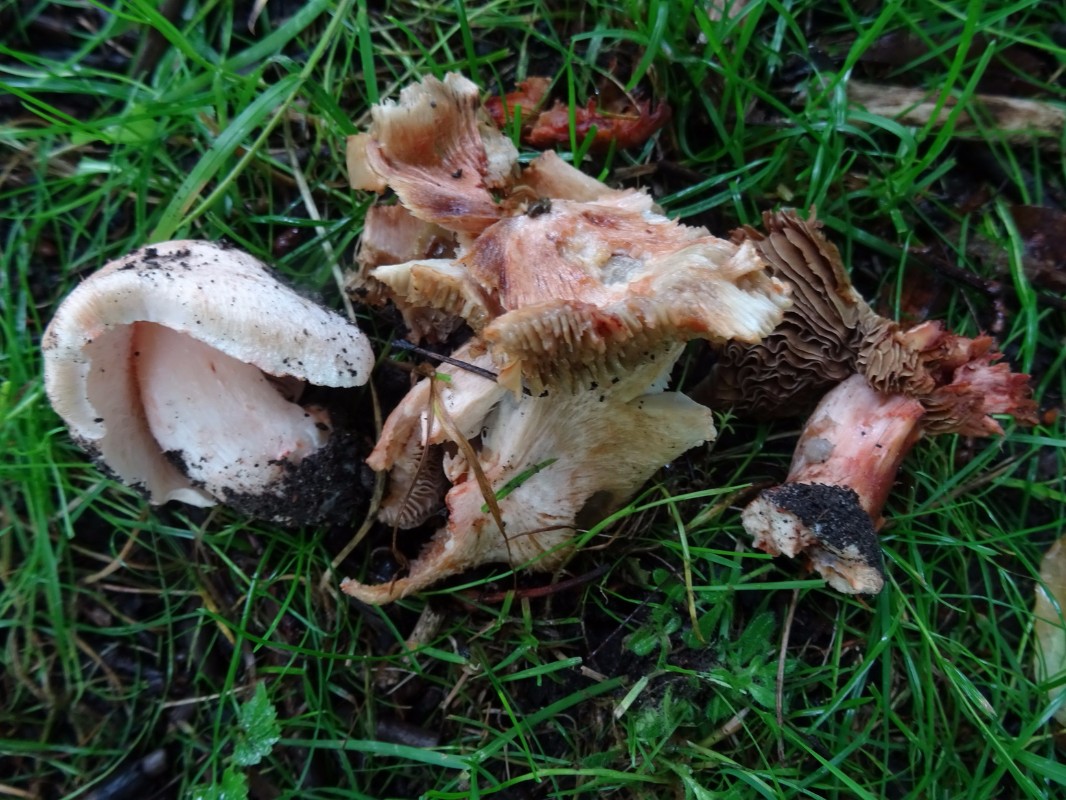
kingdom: Fungi
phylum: Basidiomycota
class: Agaricomycetes
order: Agaricales
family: Inocybaceae
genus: Inosperma
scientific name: Inosperma erubescens
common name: giftig trævlhat
